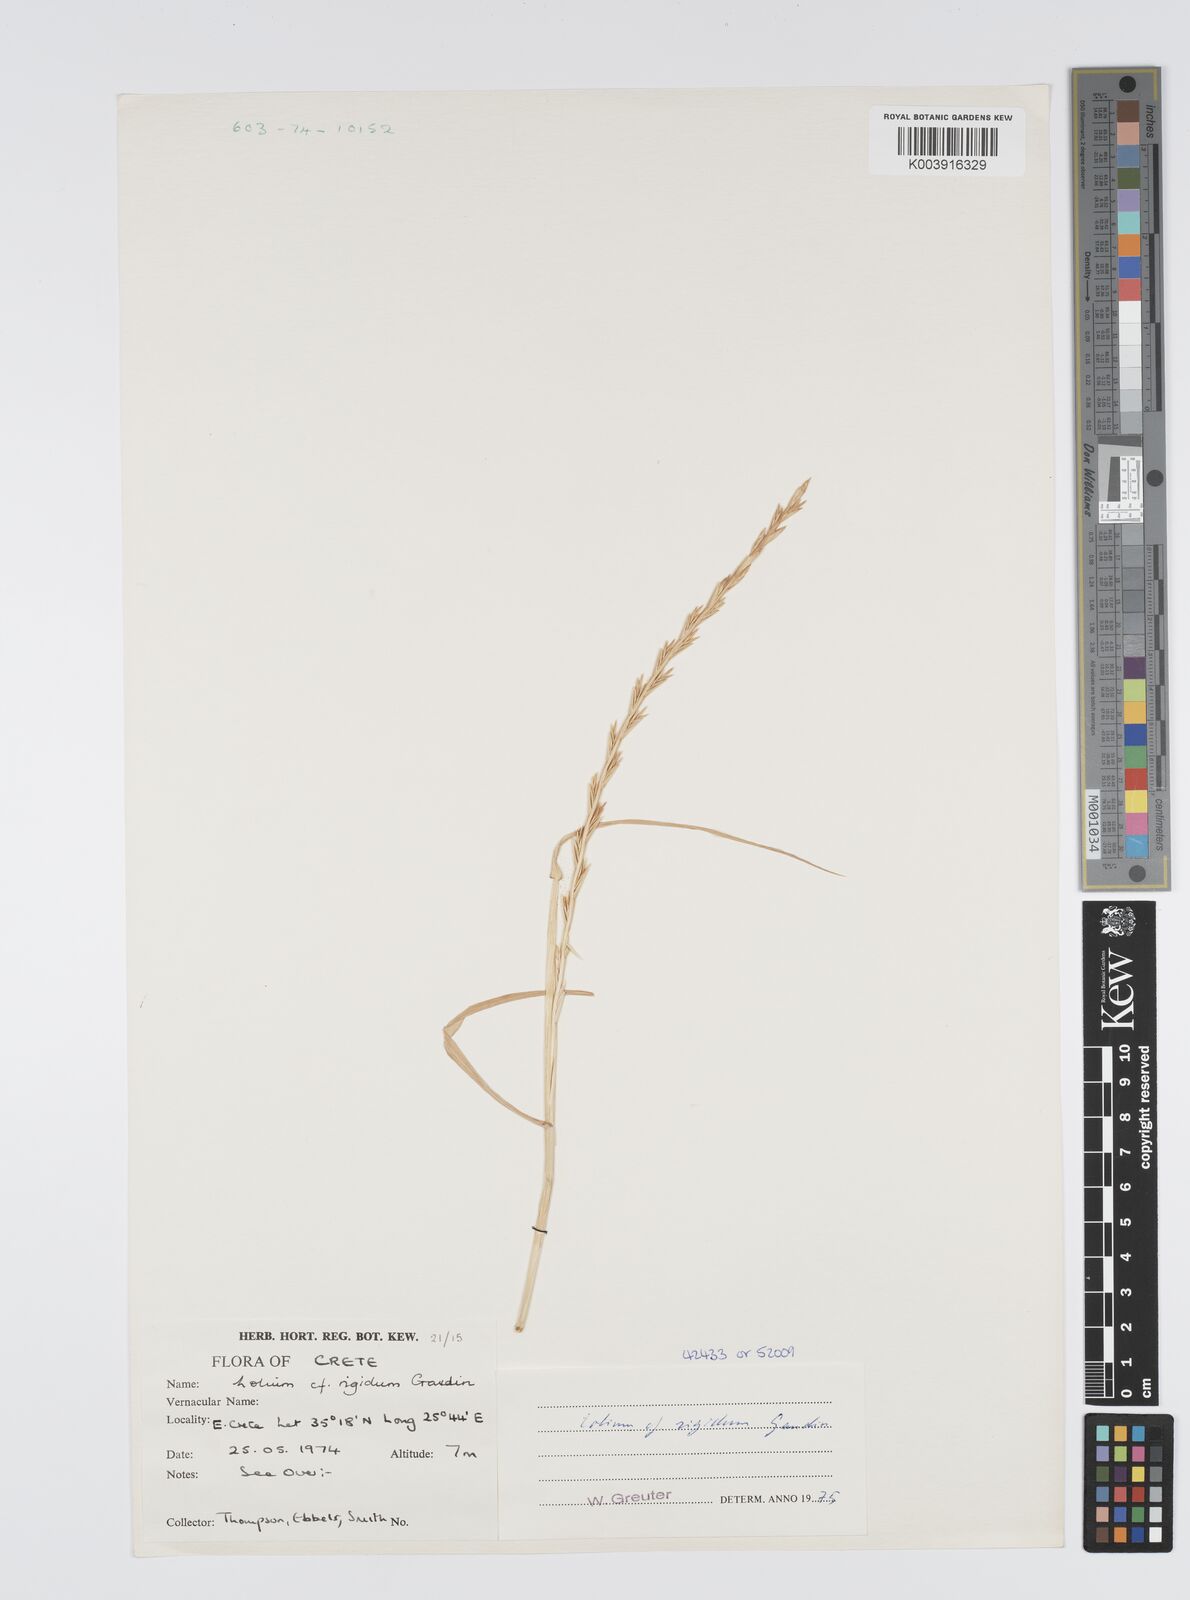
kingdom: Plantae
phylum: Tracheophyta
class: Liliopsida
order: Poales
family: Poaceae
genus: Lolium
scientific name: Lolium rigidum
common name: Wimmera ryegrass
